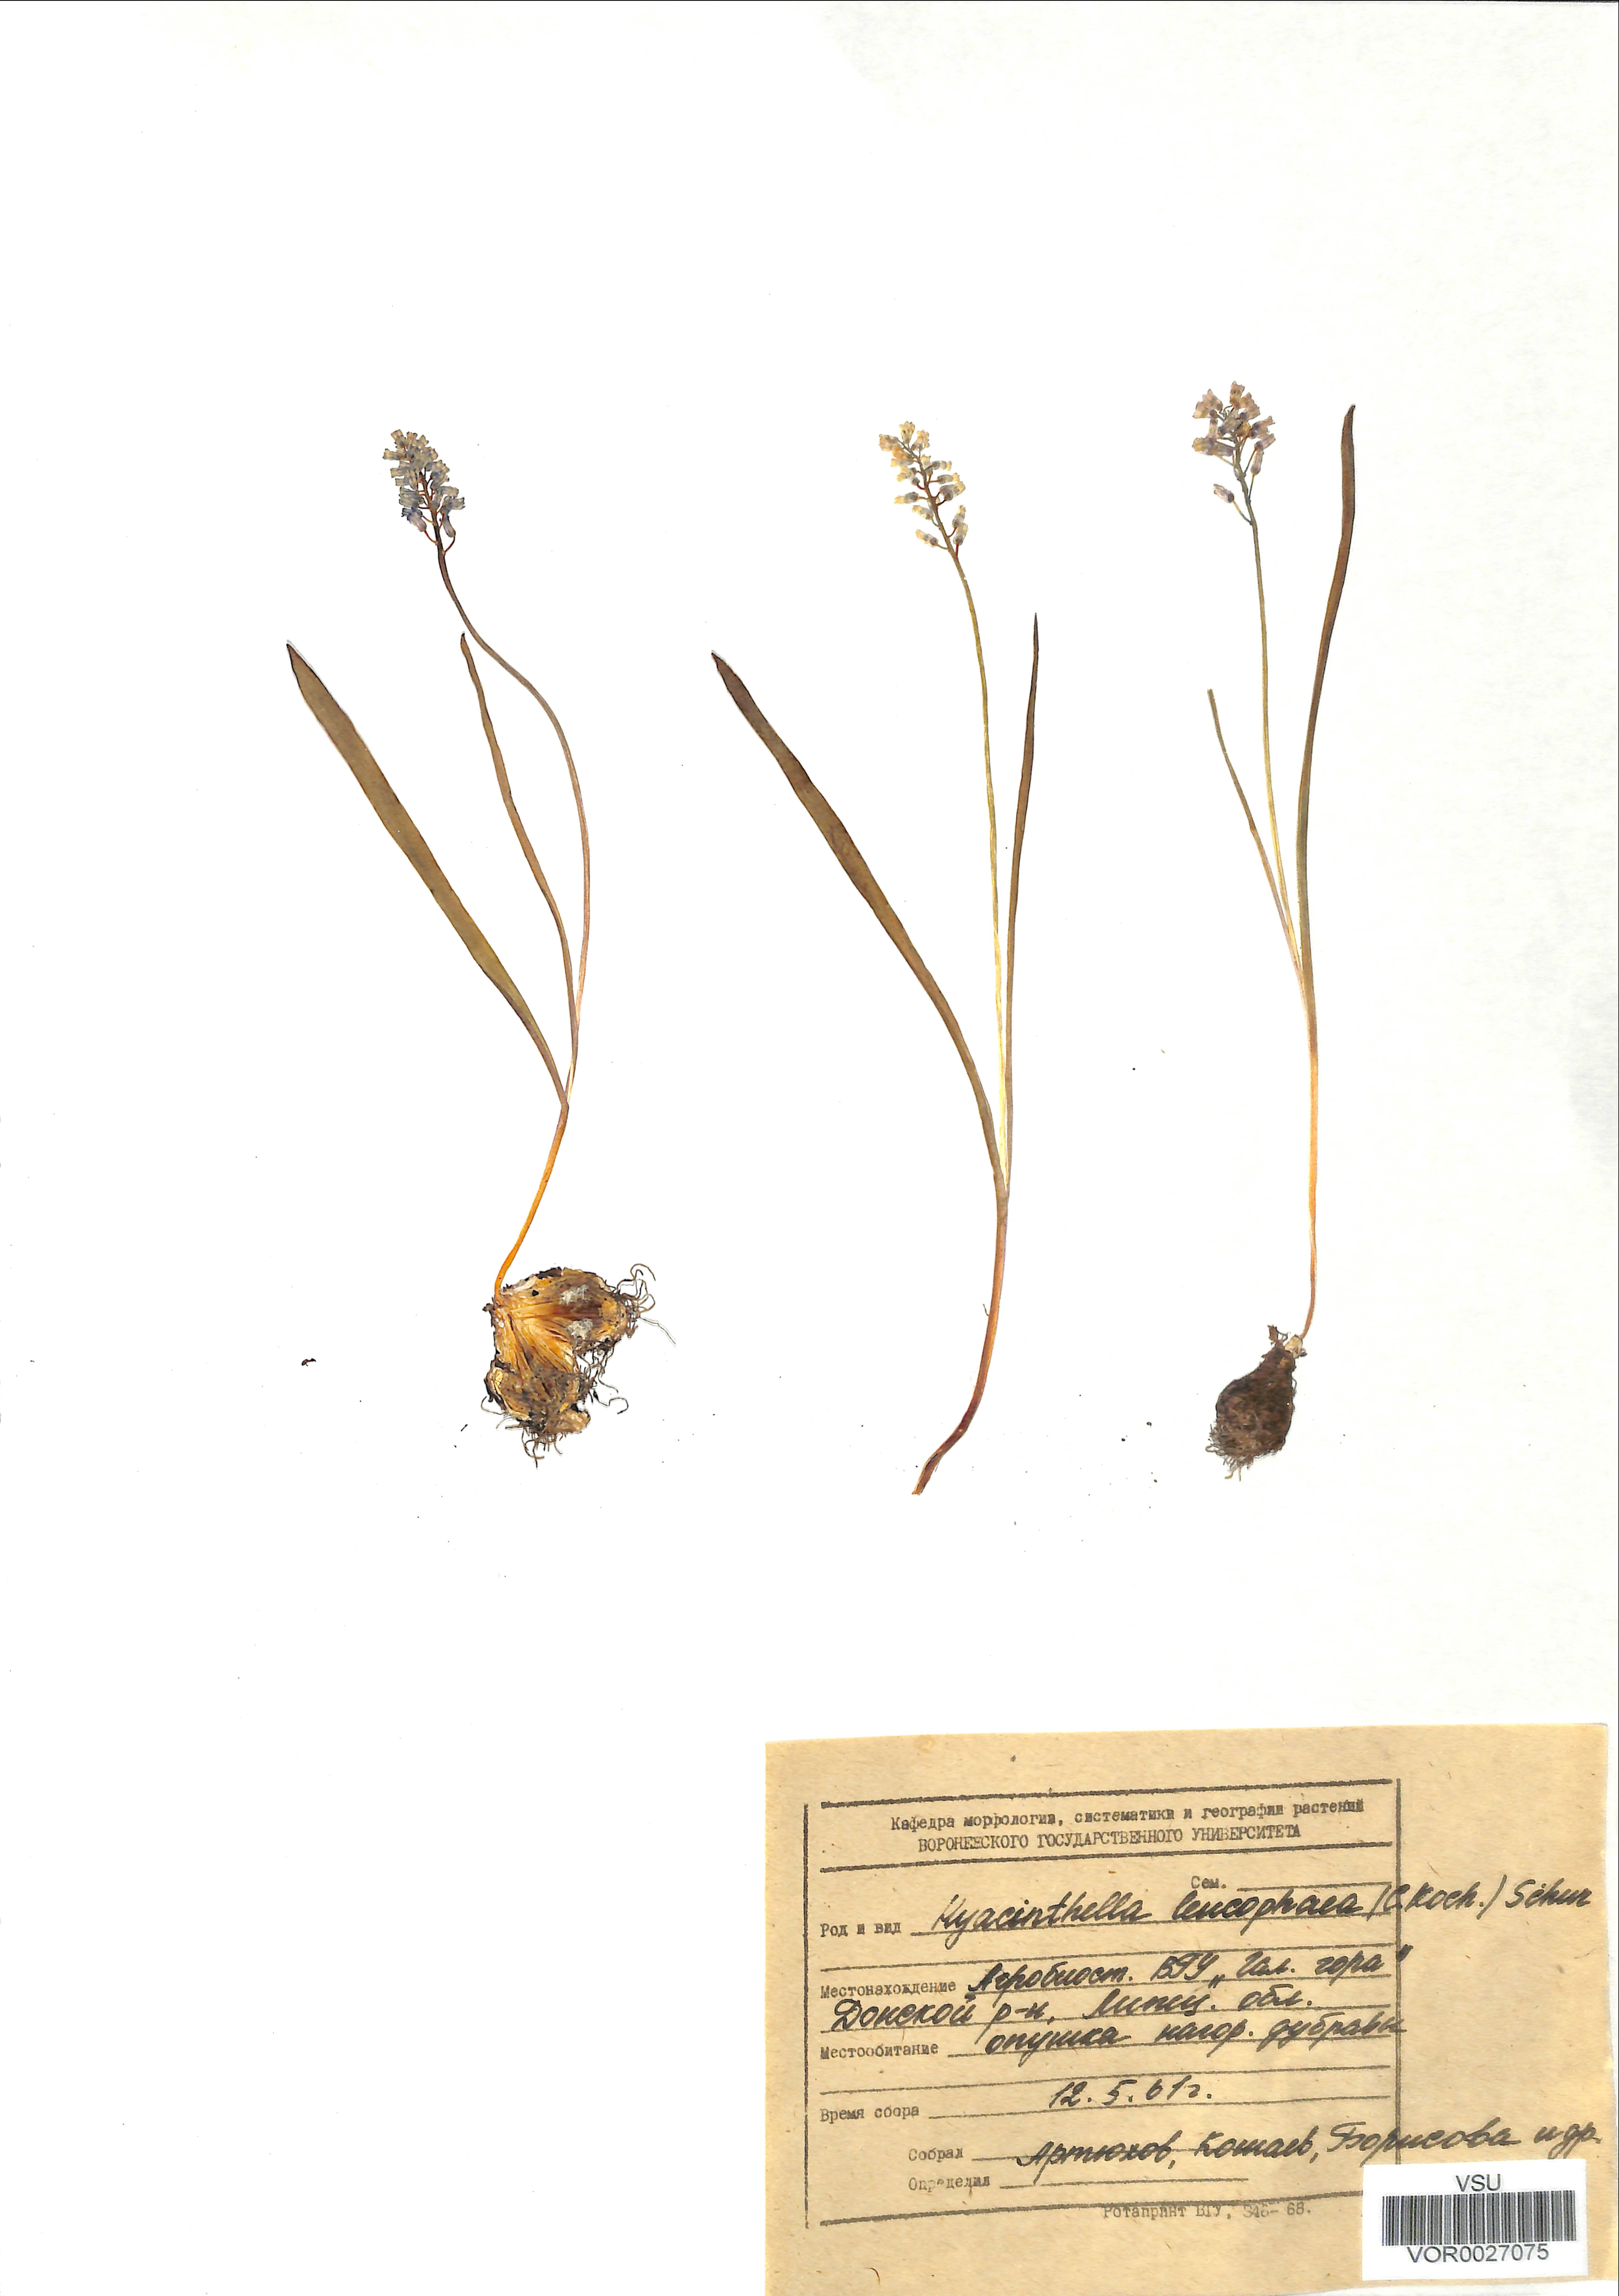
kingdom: Plantae
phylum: Tracheophyta
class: Liliopsida
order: Asparagales
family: Asparagaceae
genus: Hyacinthella
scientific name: Hyacinthella leucophaea
